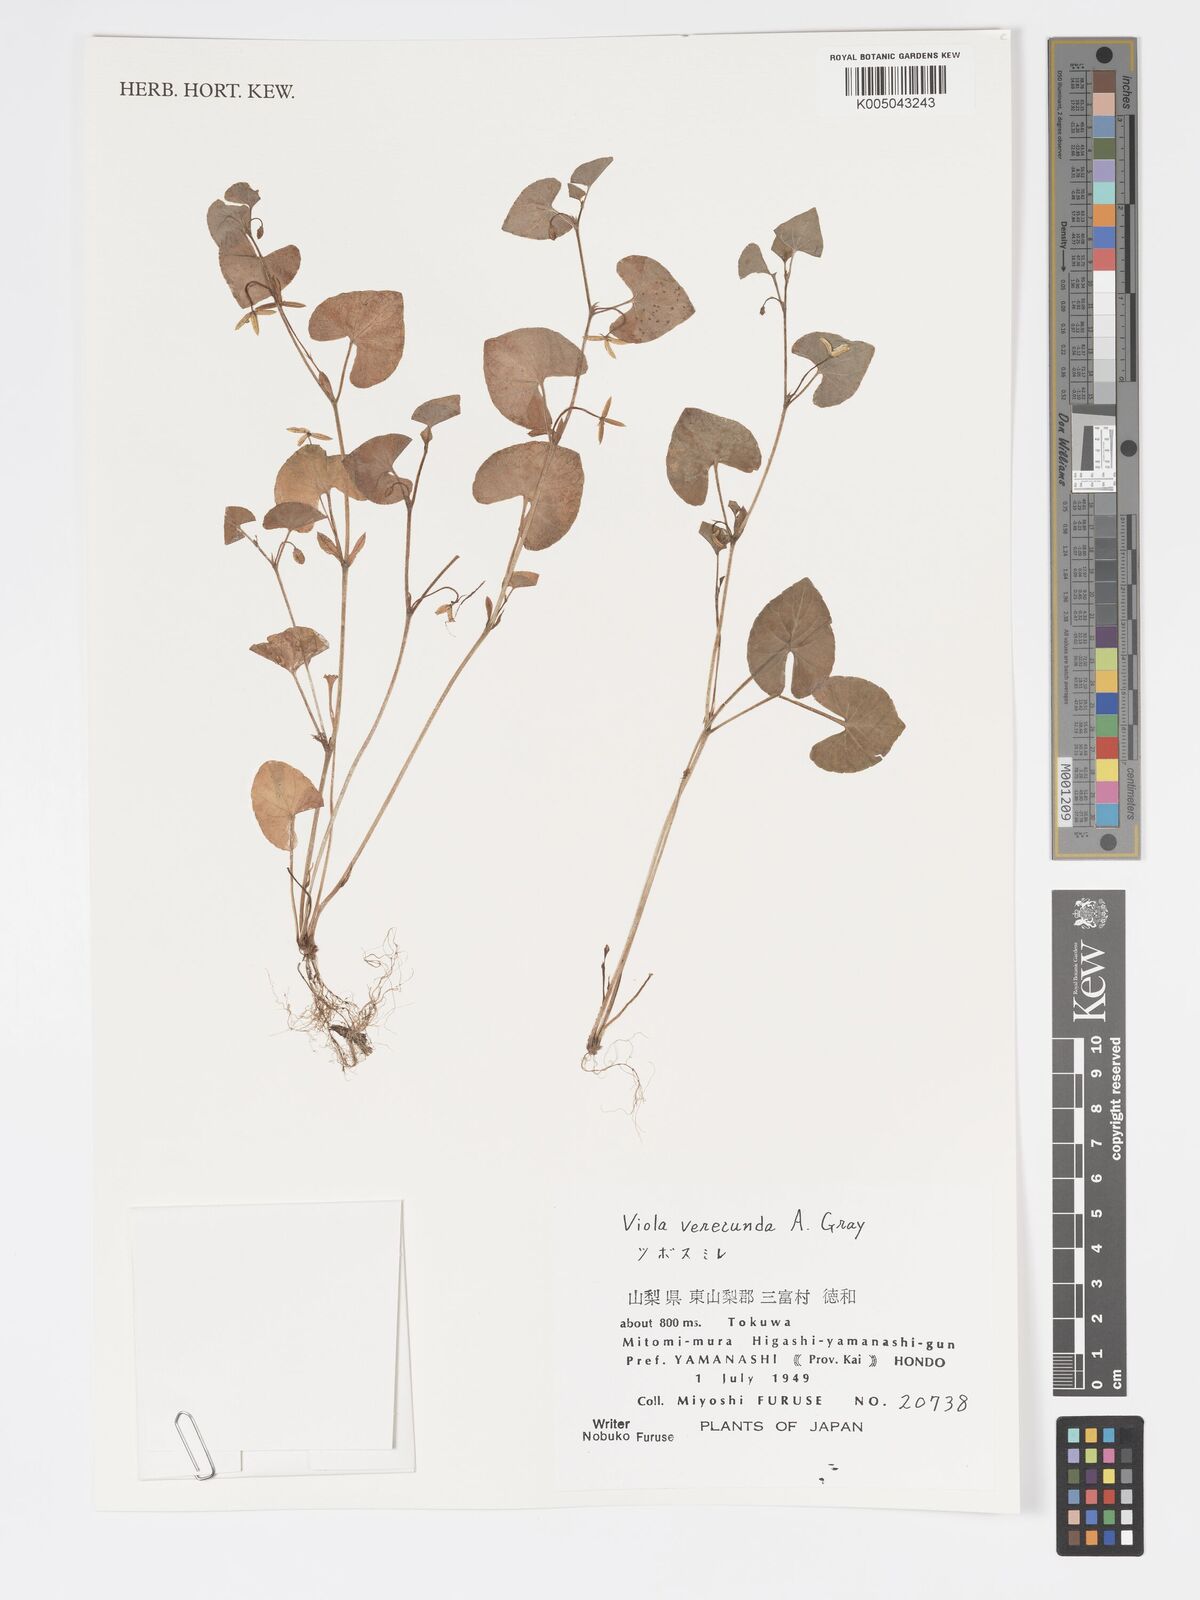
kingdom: Plantae
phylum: Tracheophyta
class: Magnoliopsida
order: Malpighiales
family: Violaceae
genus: Viola
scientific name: Viola hamiltoniana
